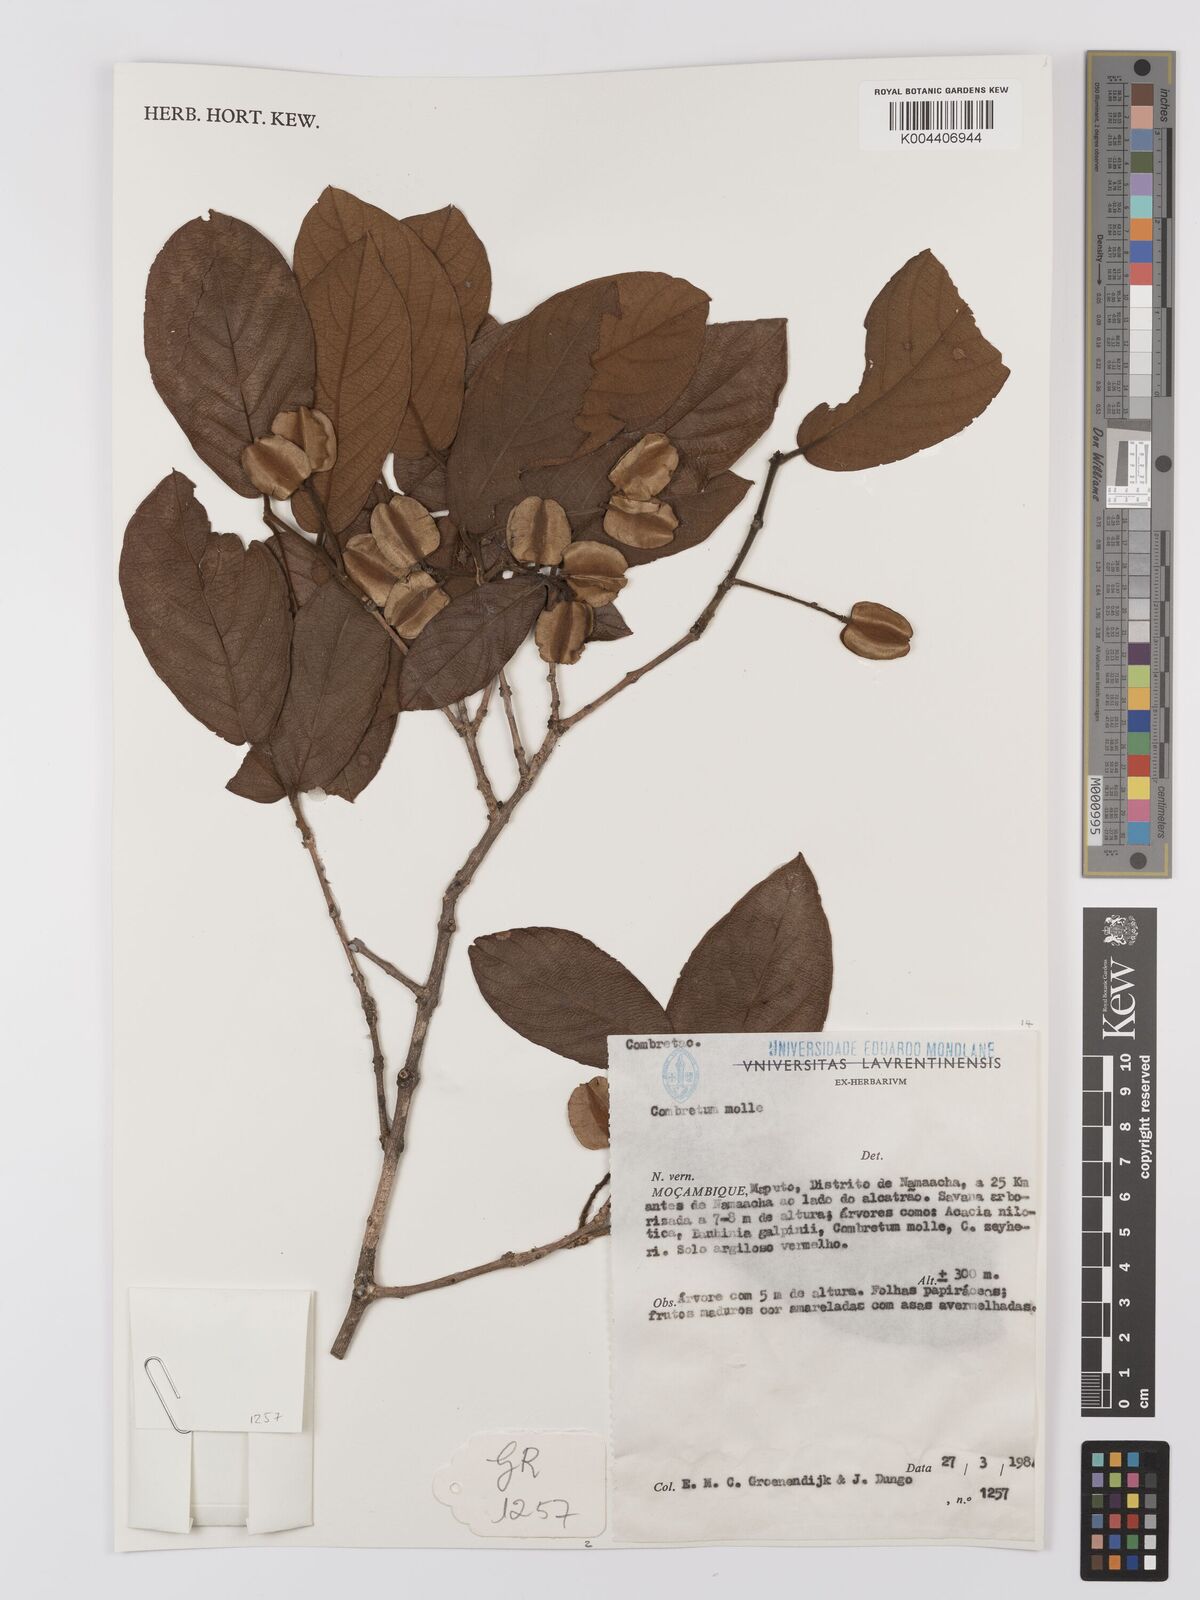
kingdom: Plantae
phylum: Tracheophyta
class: Magnoliopsida
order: Myrtales
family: Combretaceae
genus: Combretum
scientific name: Combretum
